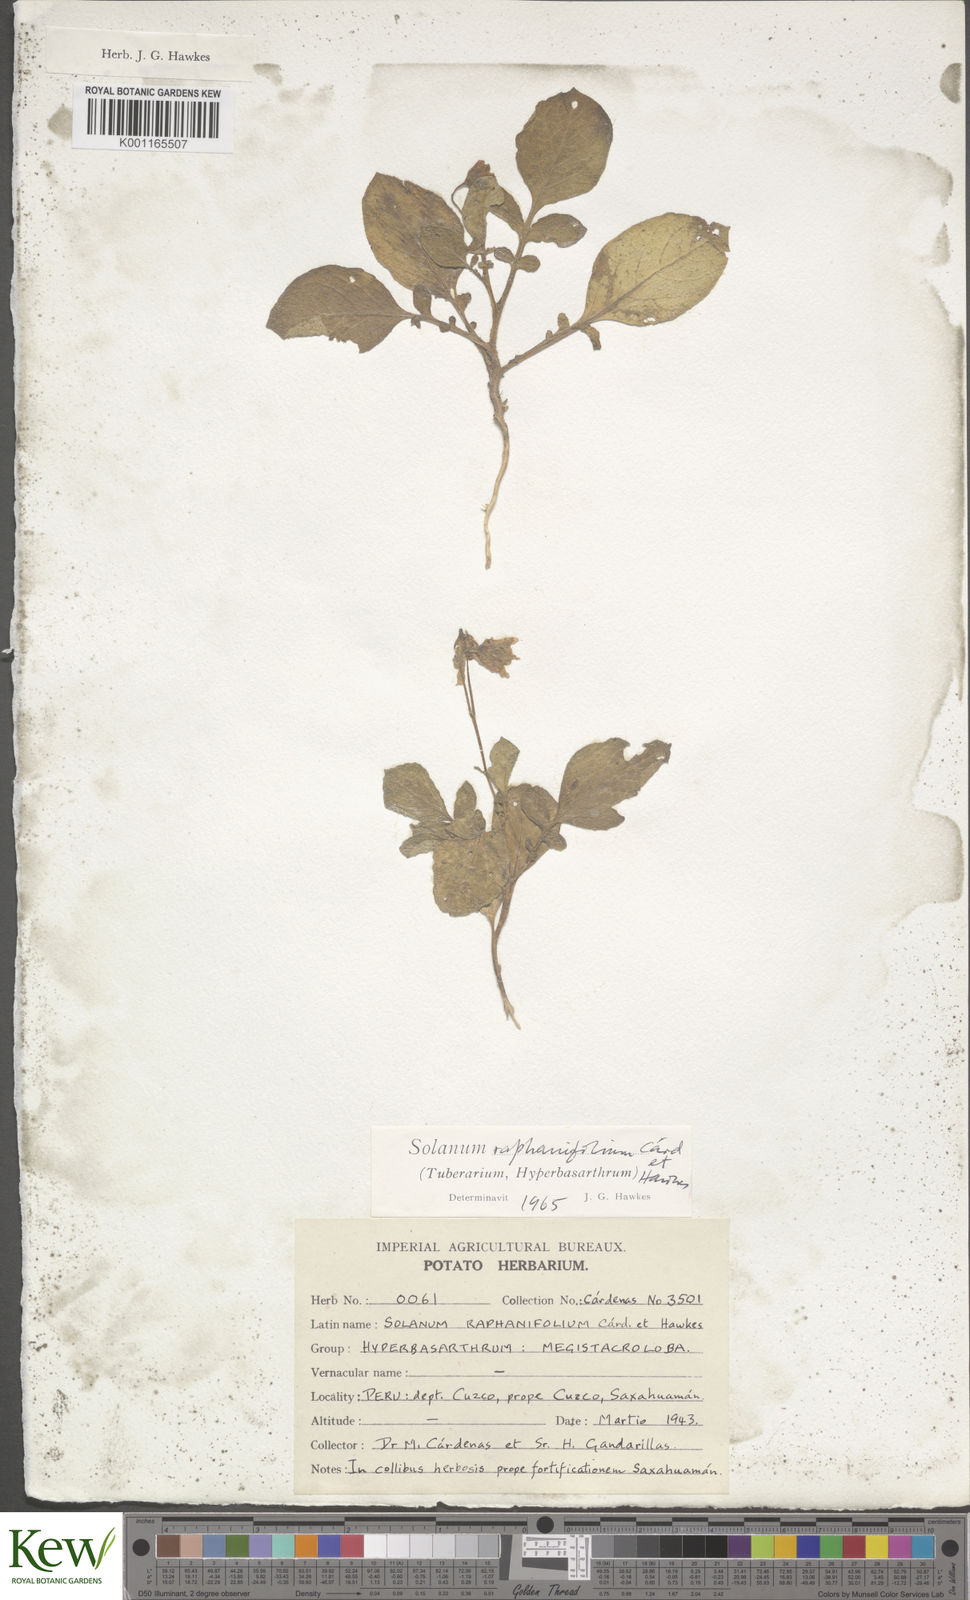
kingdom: Plantae
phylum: Tracheophyta
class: Magnoliopsida
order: Solanales
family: Solanaceae
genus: Solanum
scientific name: Solanum raphanifolium
